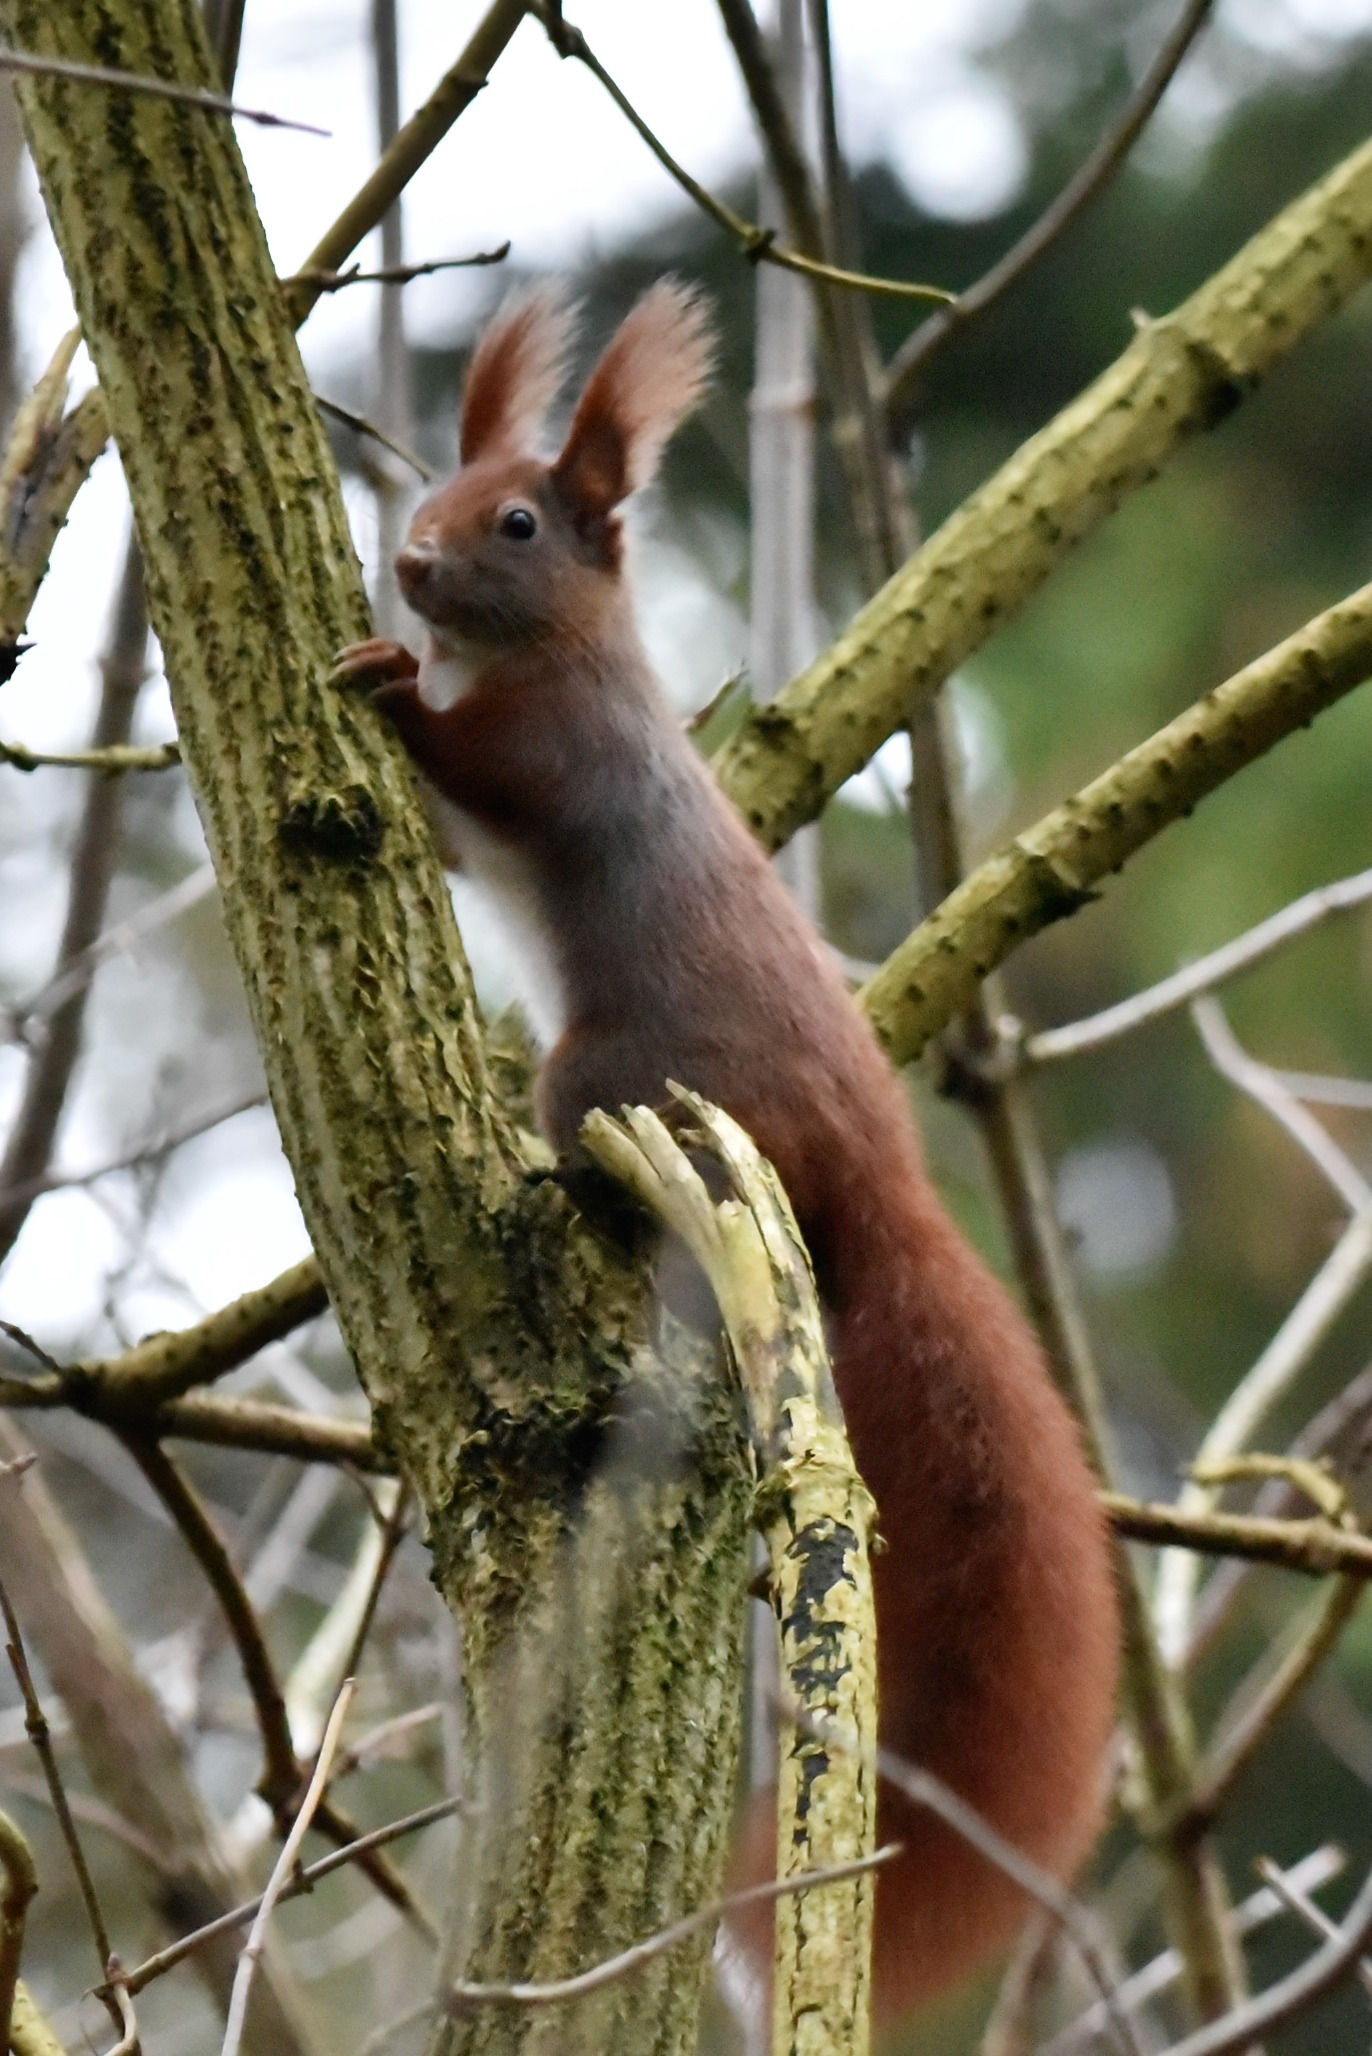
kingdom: Animalia
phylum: Chordata
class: Mammalia
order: Rodentia
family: Sciuridae
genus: Sciurus
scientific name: Sciurus vulgaris
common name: Egern
